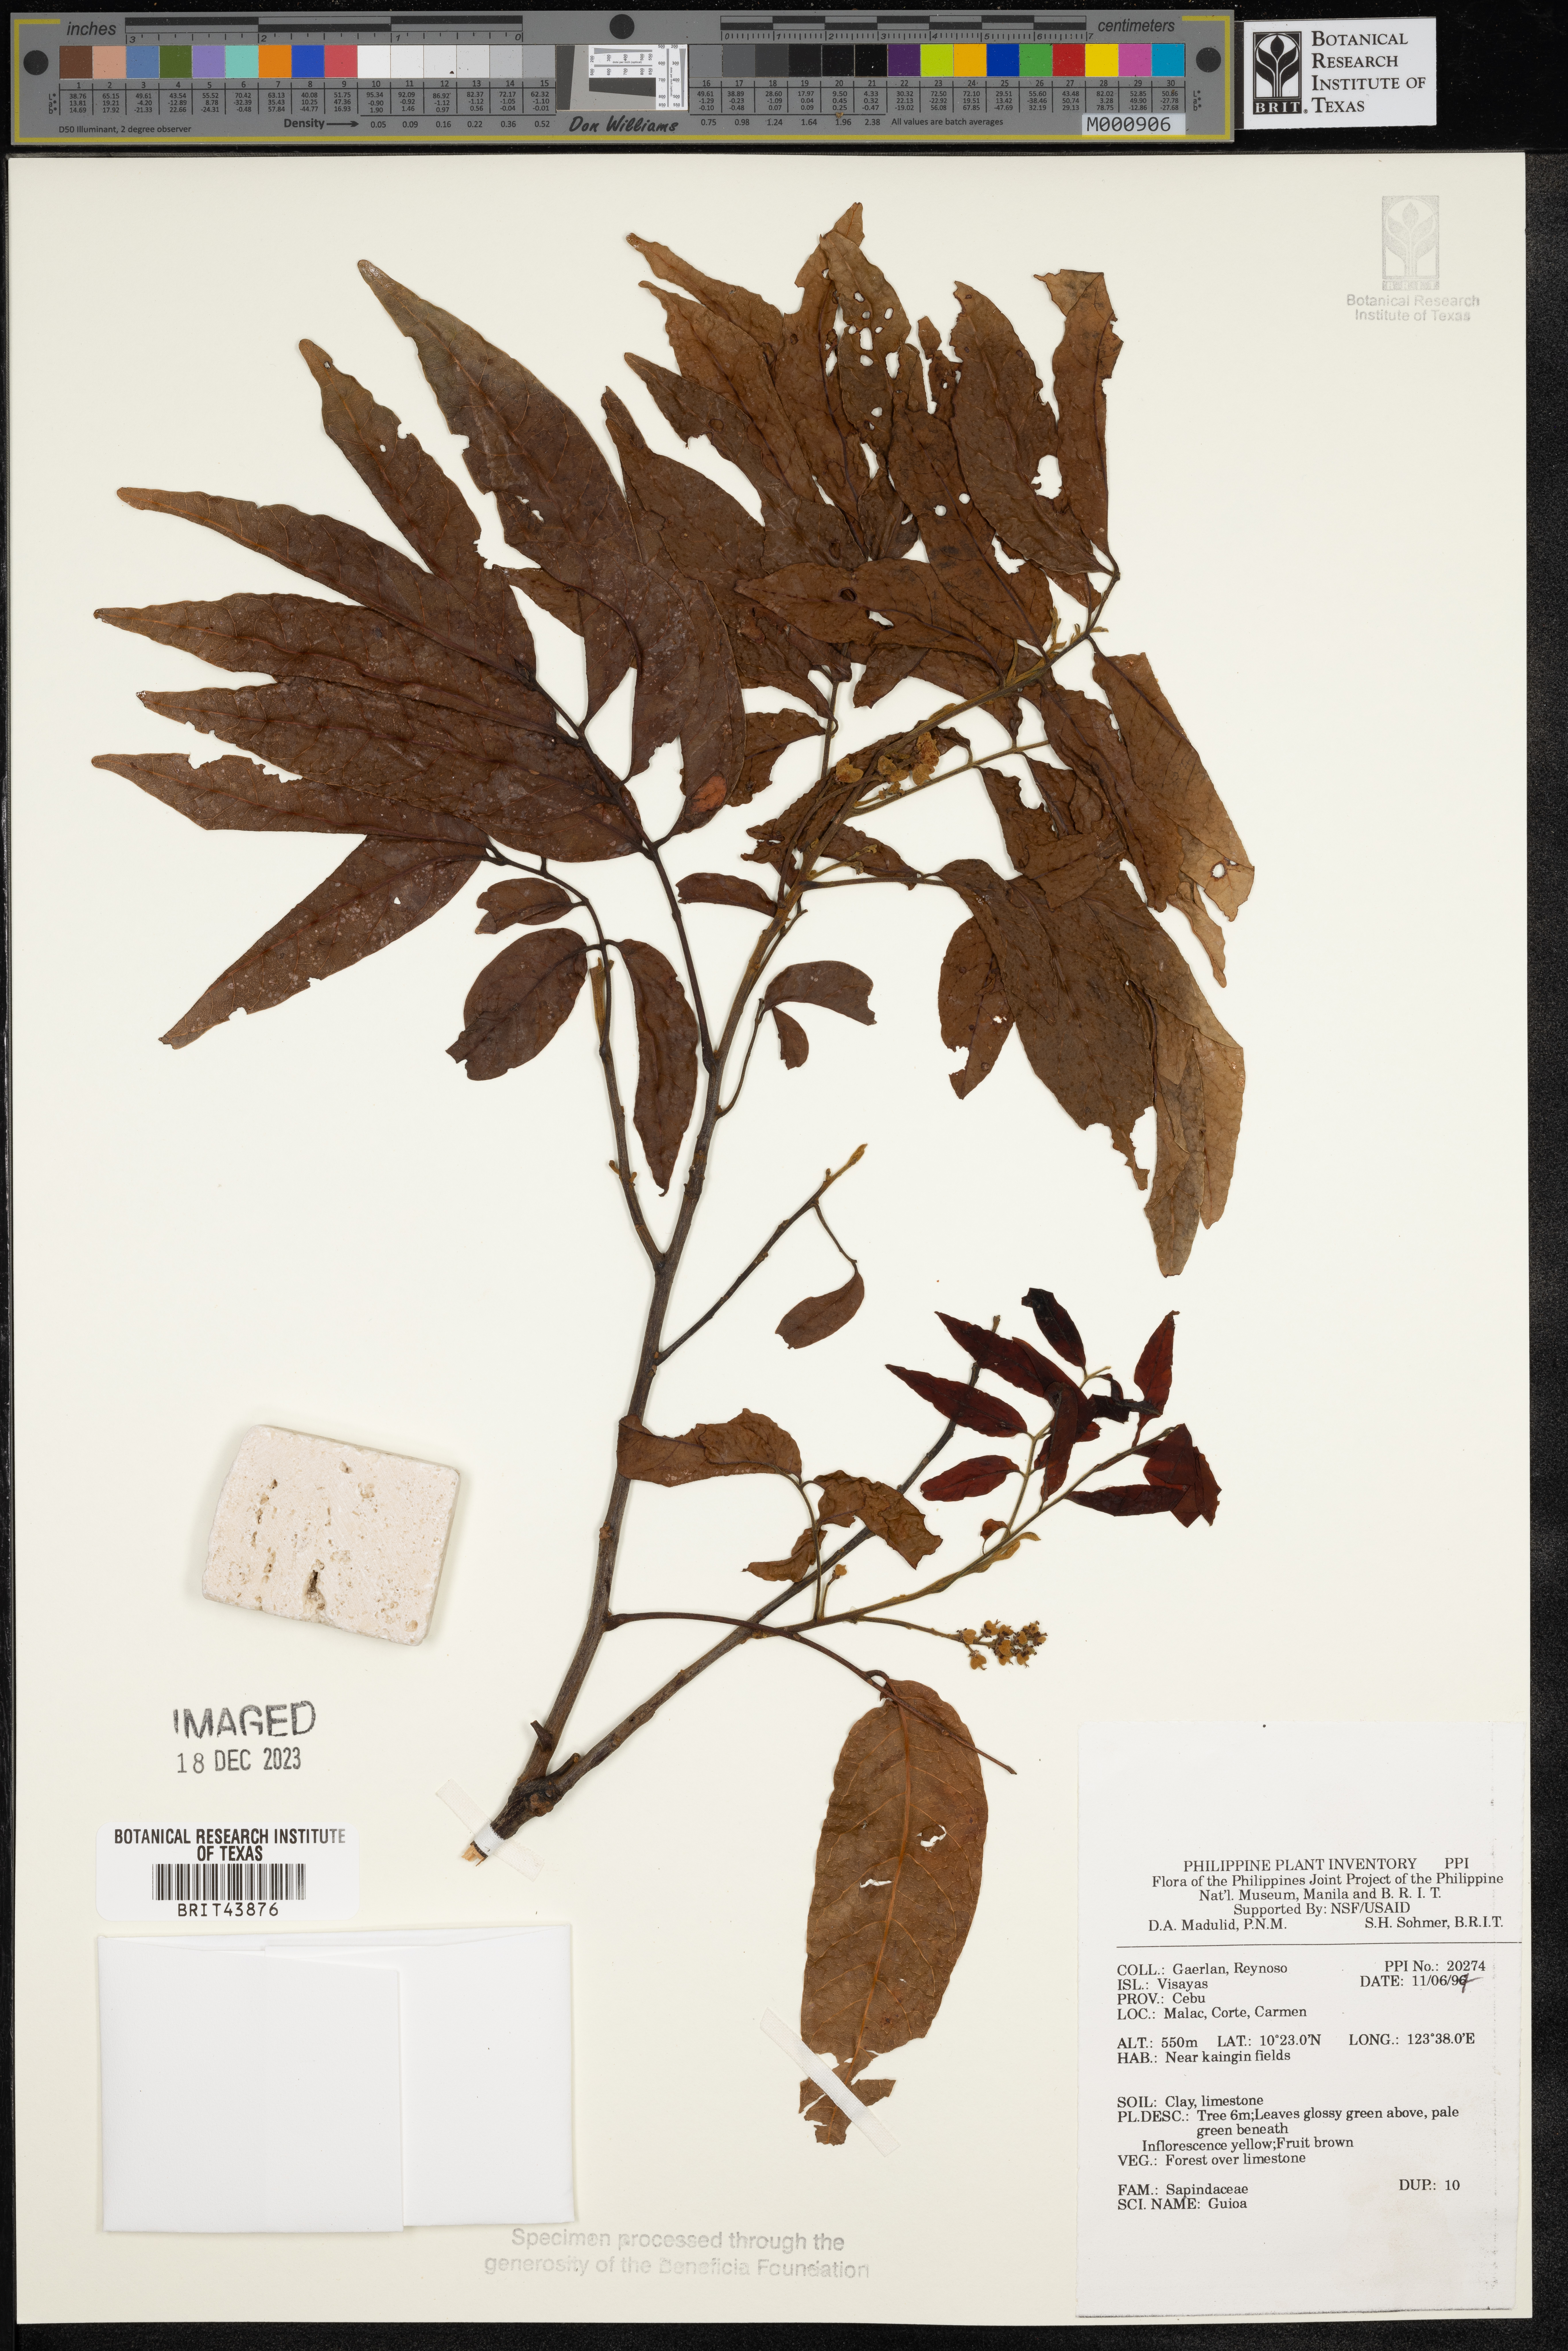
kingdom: Plantae
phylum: Tracheophyta
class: Magnoliopsida
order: Sapindales
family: Sapindaceae
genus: Guioa
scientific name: Guioa
